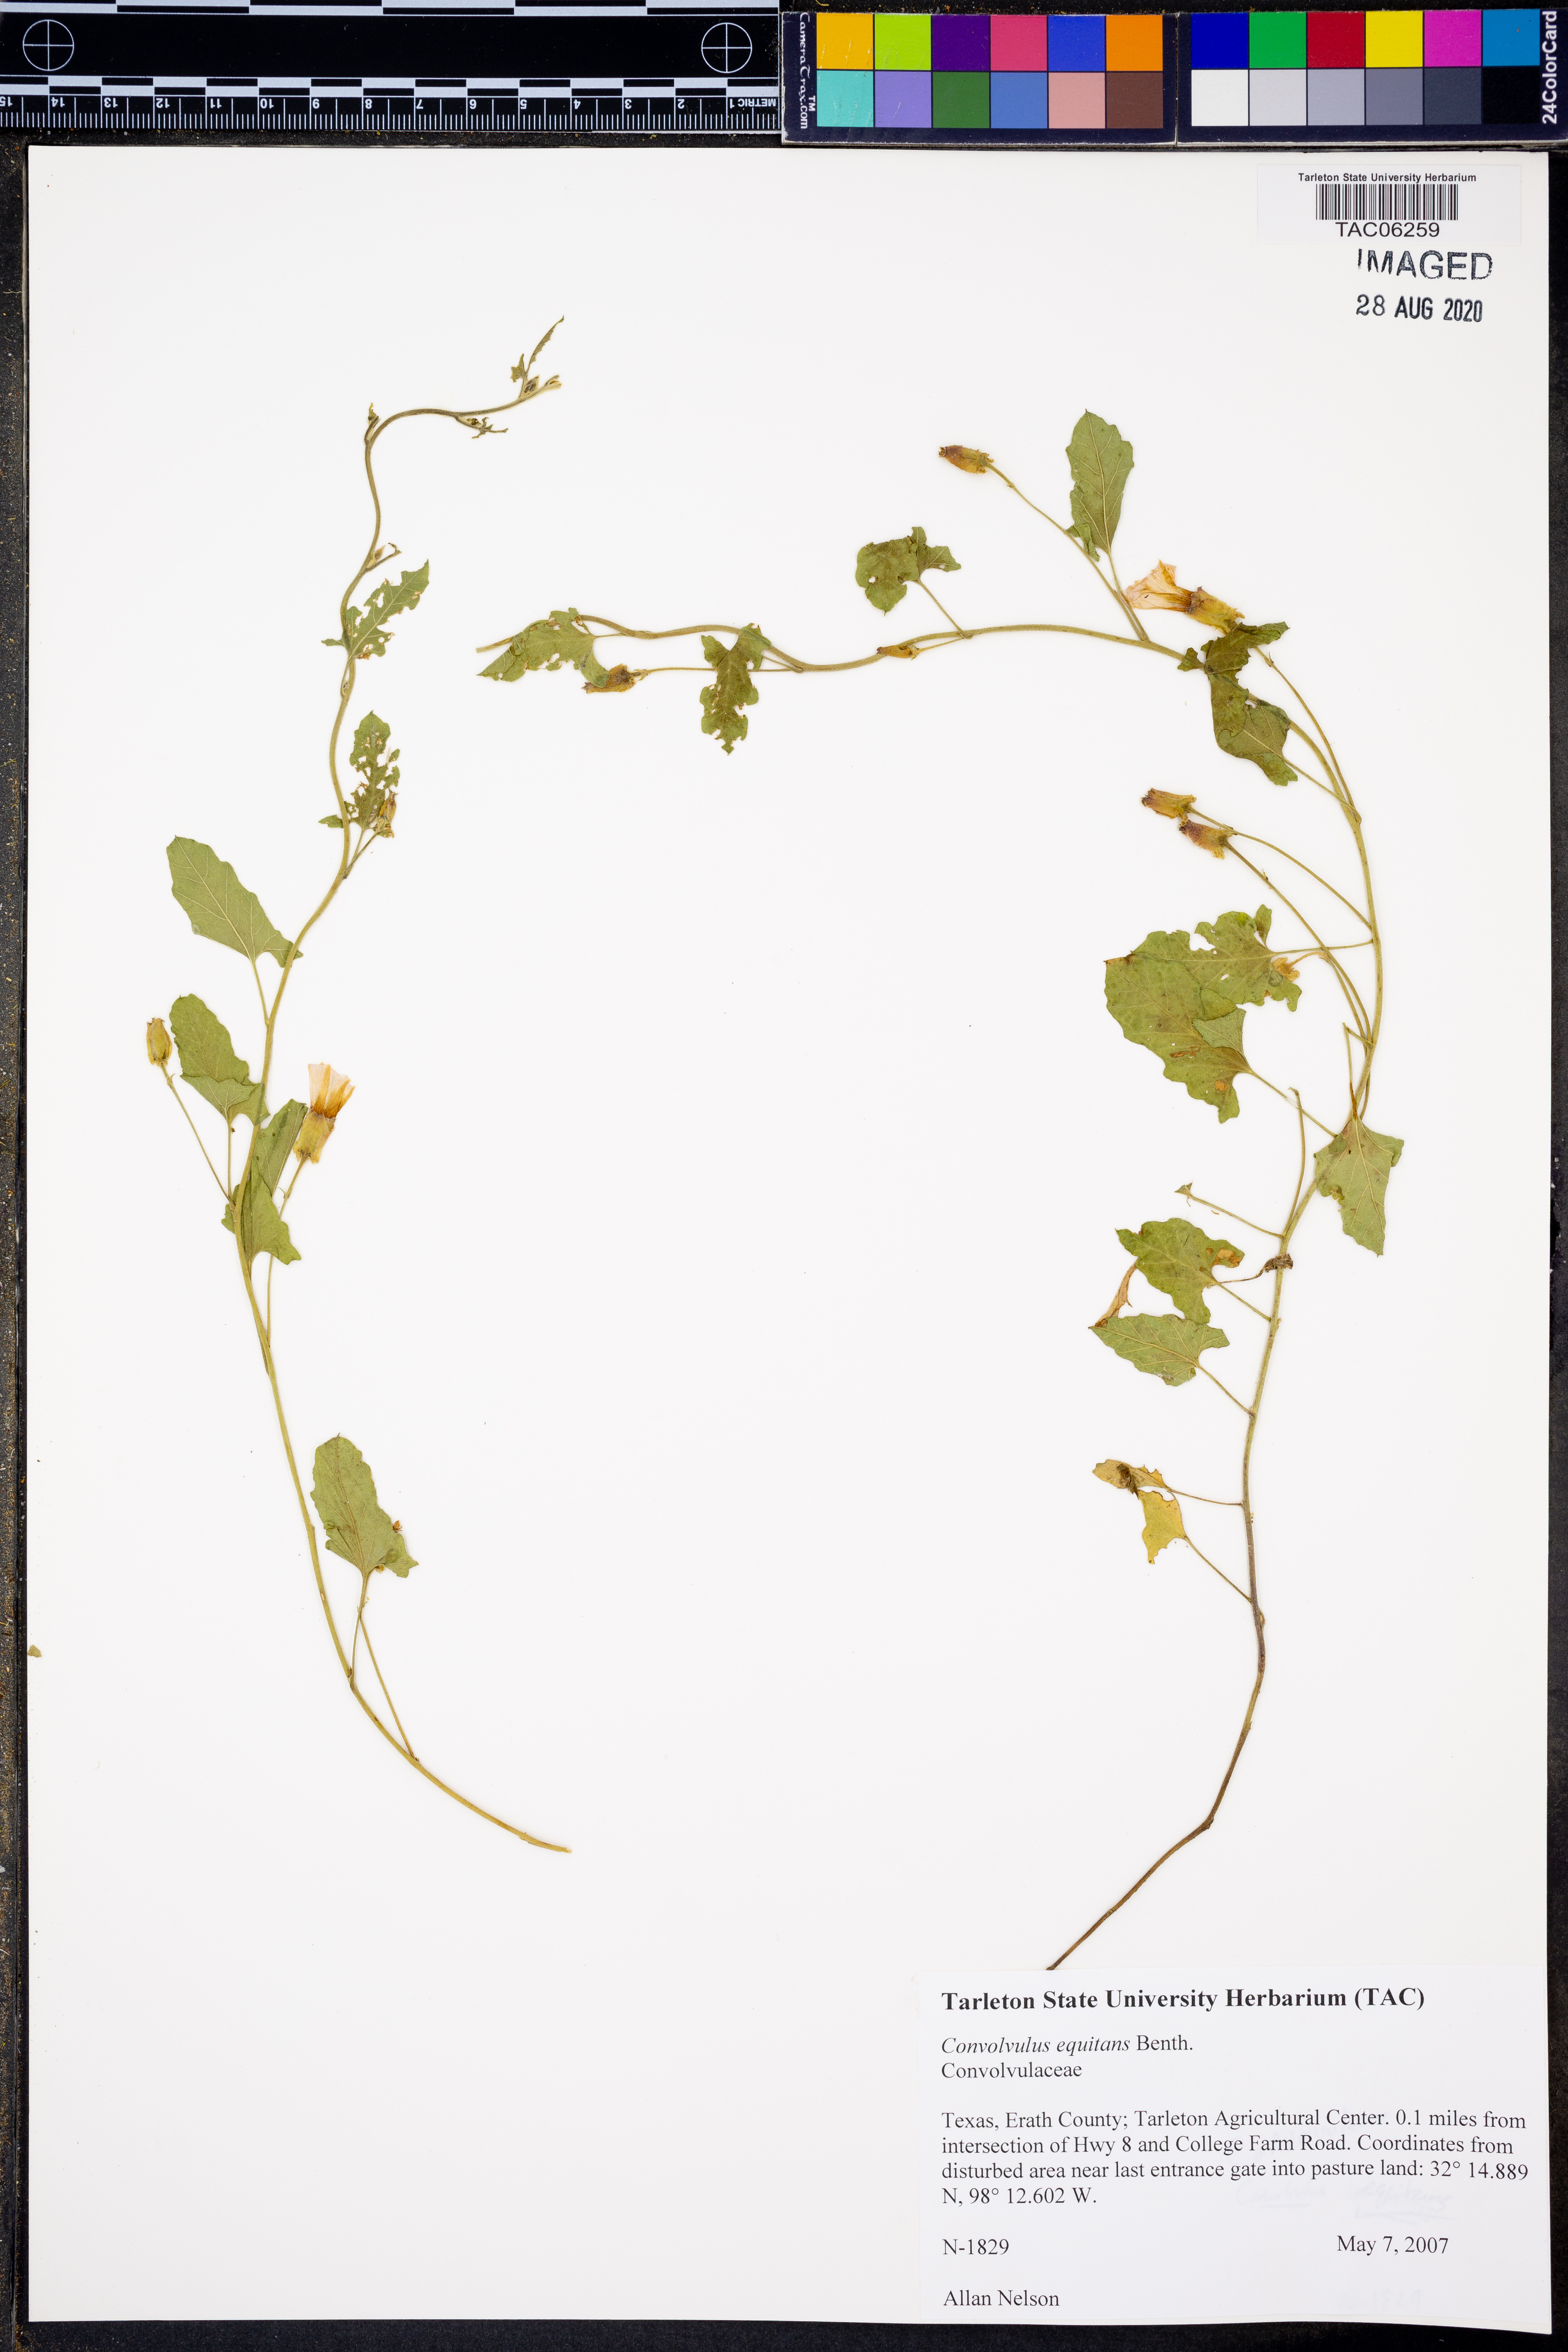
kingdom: Plantae
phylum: Tracheophyta
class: Magnoliopsida
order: Solanales
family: Convolvulaceae
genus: Convolvulus
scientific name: Convolvulus equitans
